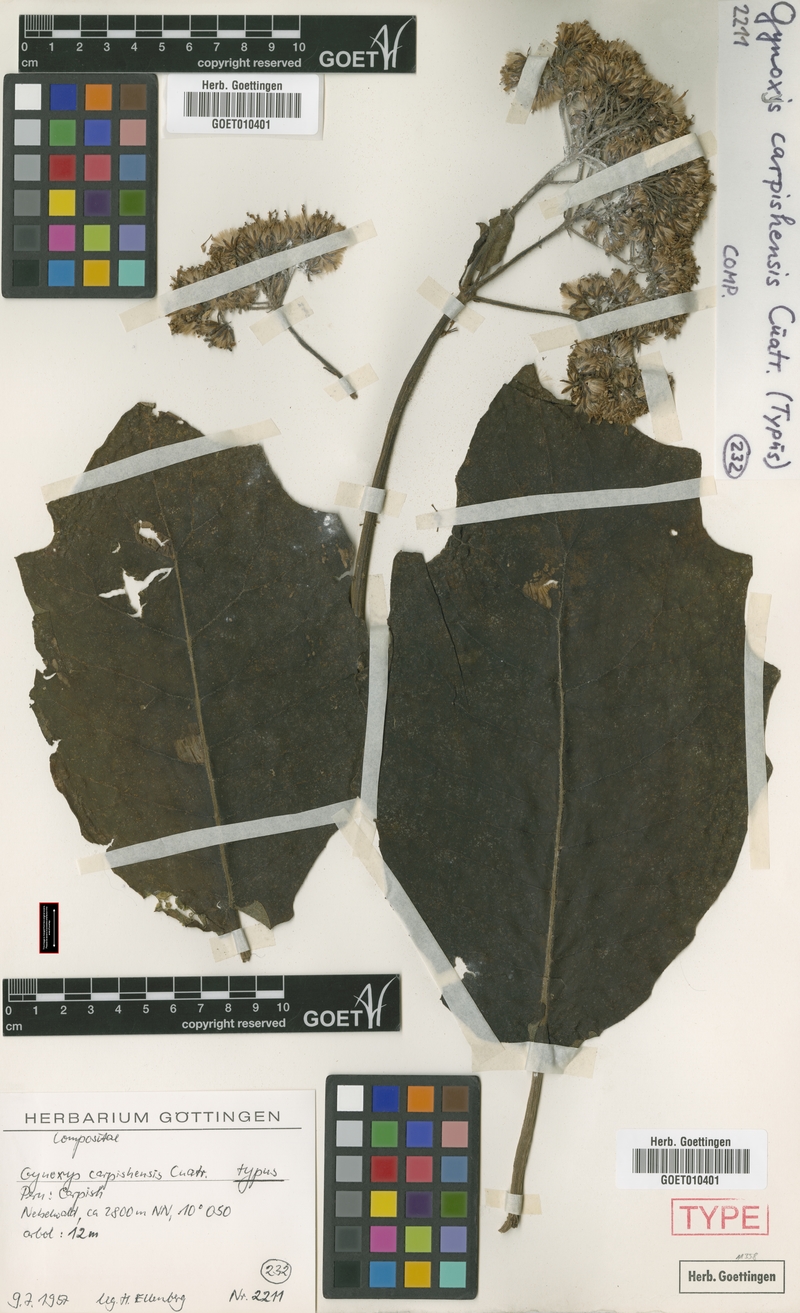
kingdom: Plantae
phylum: Tracheophyta
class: Magnoliopsida
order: Asterales
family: Asteraceae
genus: Nordenstamia
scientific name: Nordenstamia carpishensis
